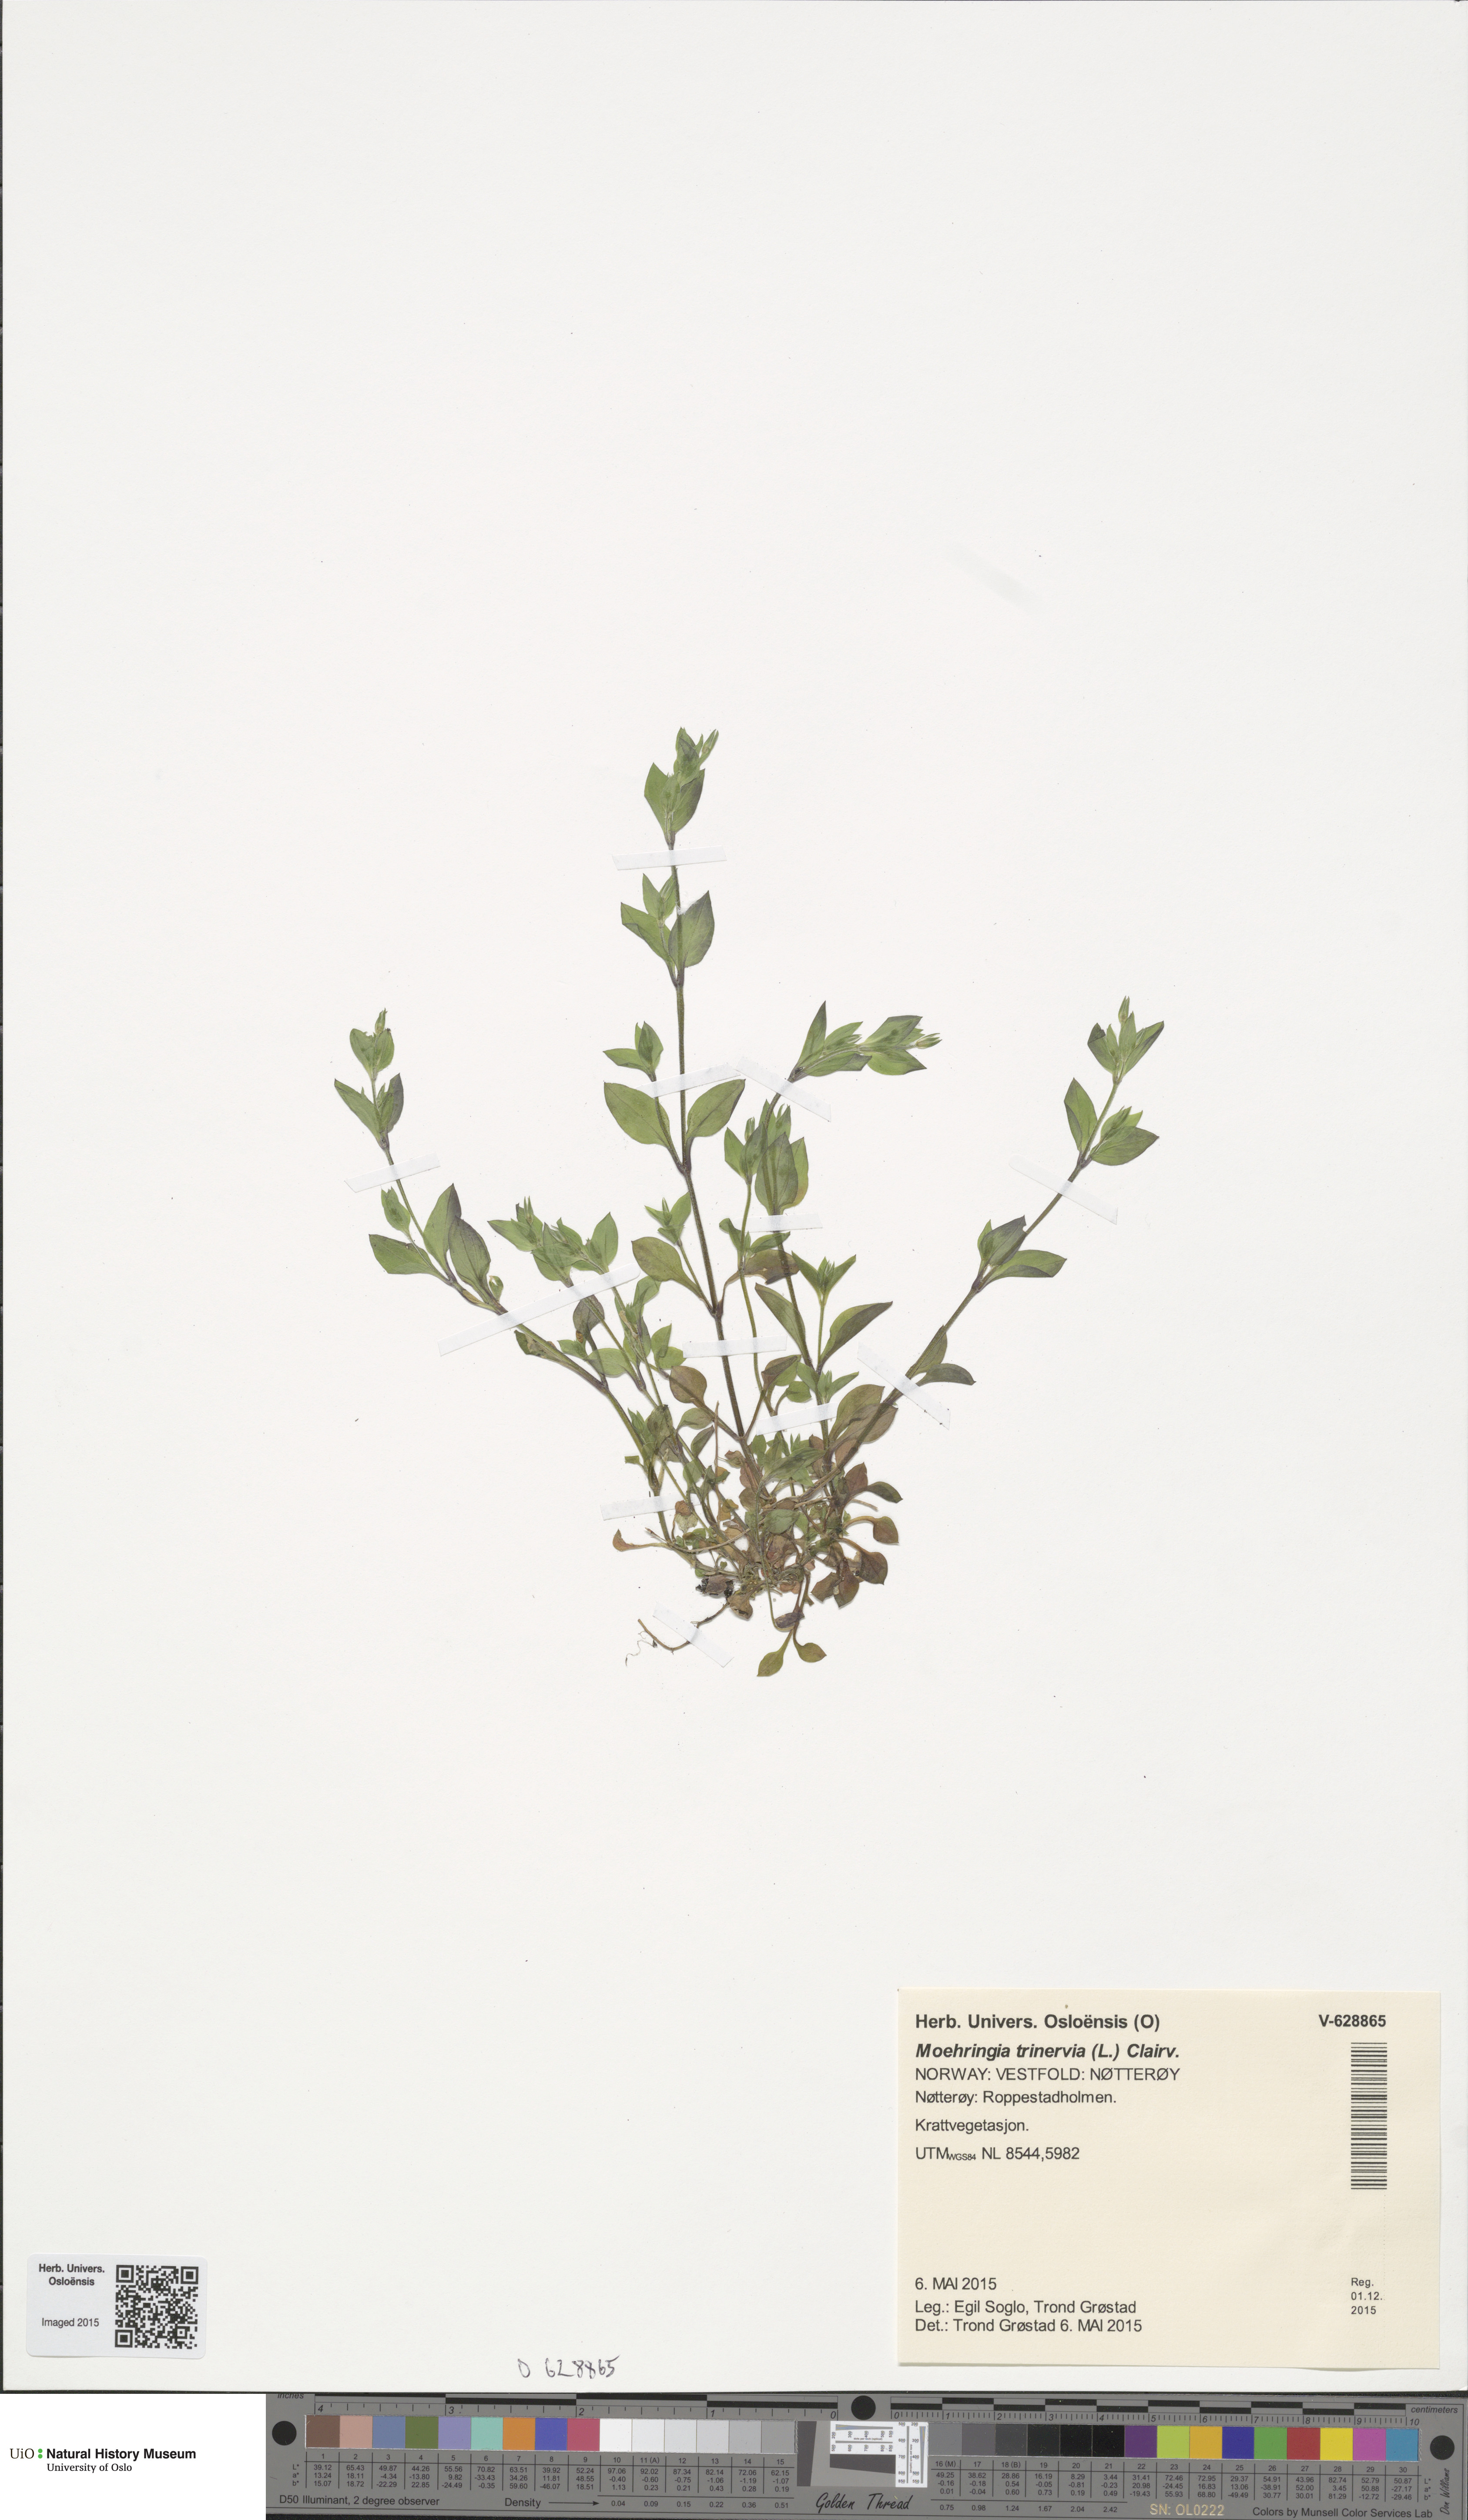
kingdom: Plantae
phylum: Tracheophyta
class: Magnoliopsida
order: Caryophyllales
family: Caryophyllaceae
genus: Moehringia
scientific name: Moehringia trinervia
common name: Three-nerved sandwort
